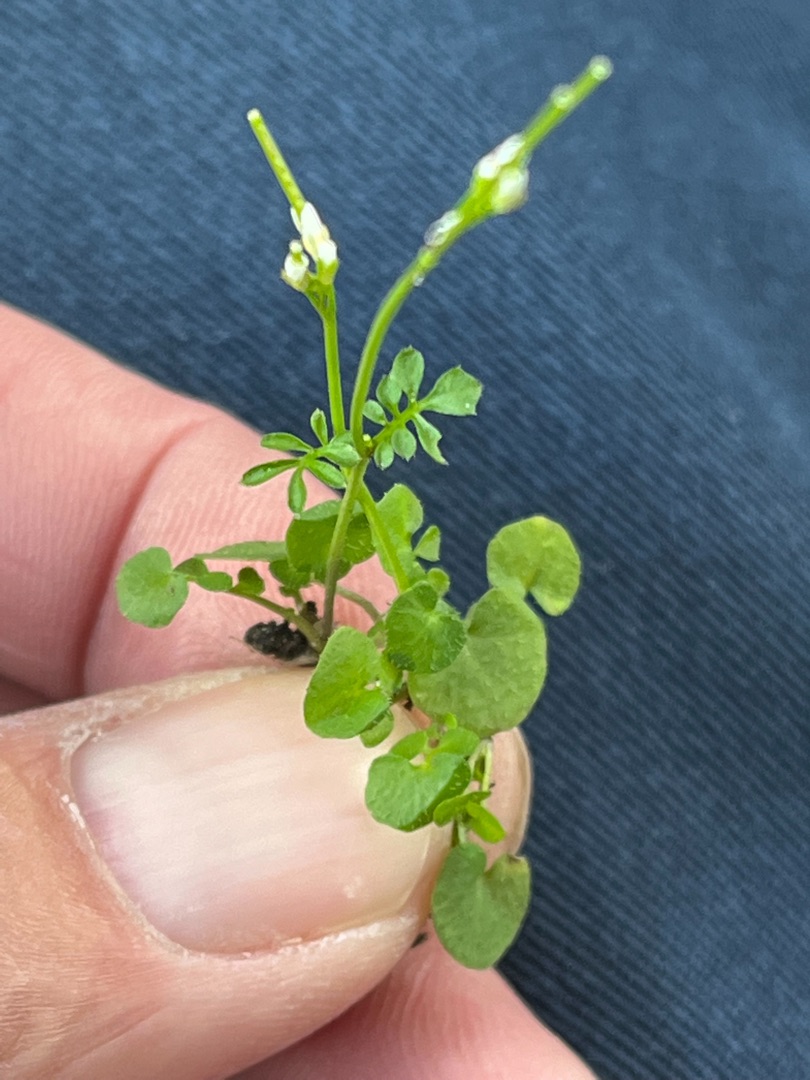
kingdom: Plantae
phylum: Tracheophyta
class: Magnoliopsida
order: Brassicales
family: Brassicaceae
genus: Cardamine
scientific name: Cardamine hirsuta
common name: Roset-springklap
